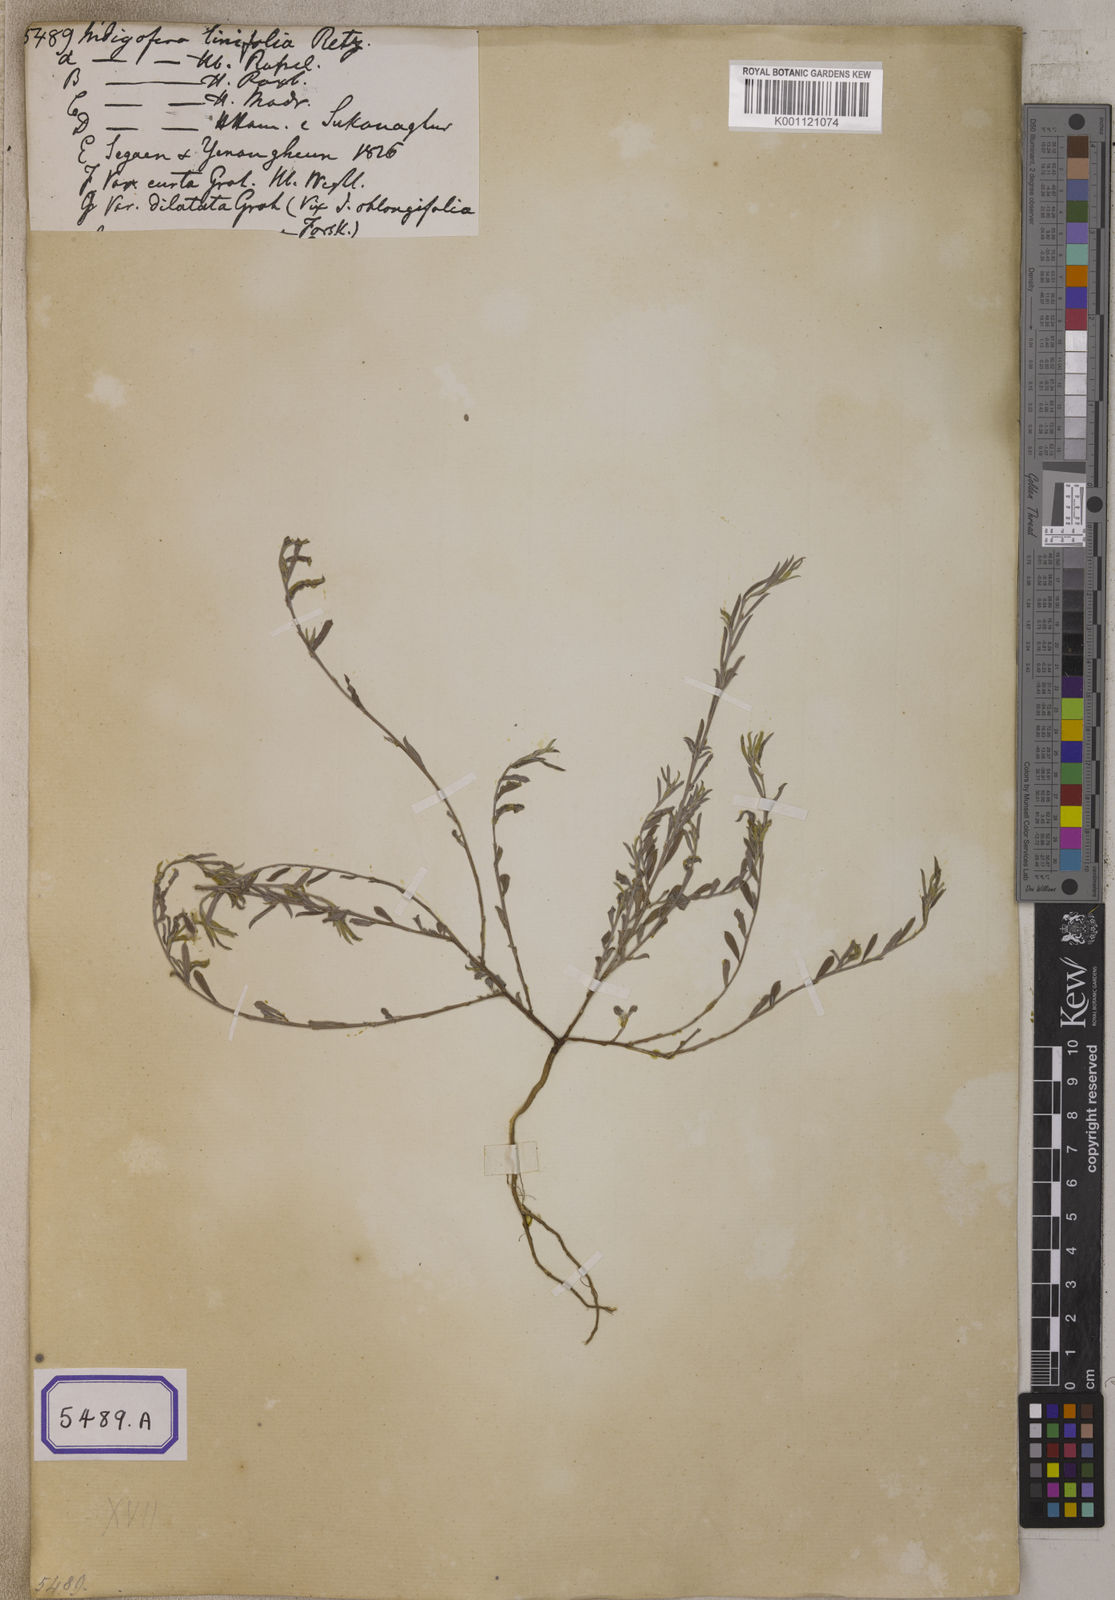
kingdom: Plantae
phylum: Tracheophyta
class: Magnoliopsida
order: Fabales
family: Fabaceae
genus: Indigofera
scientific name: Indigofera linifolia
